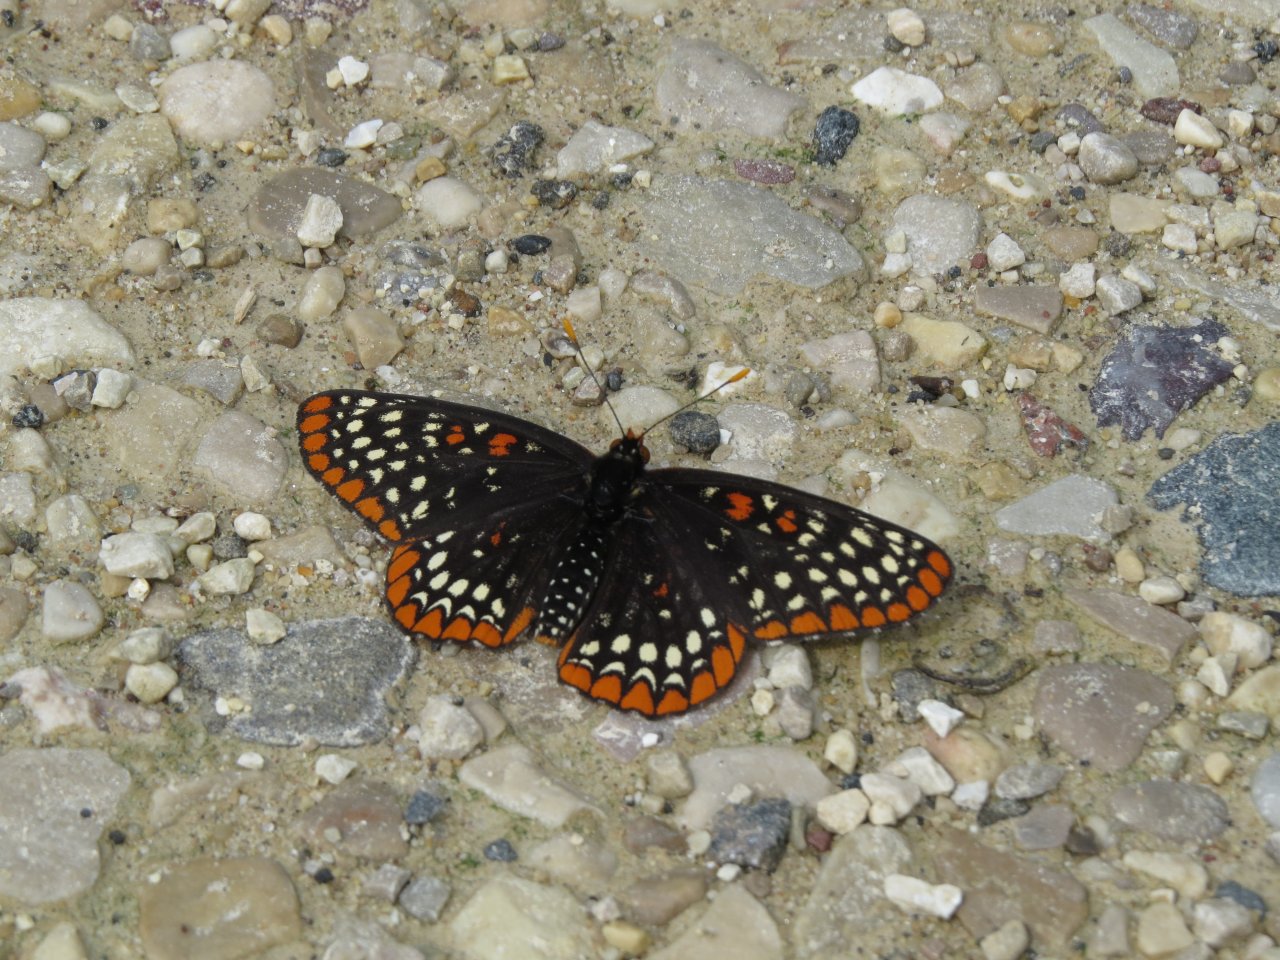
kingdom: Animalia
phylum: Arthropoda
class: Insecta
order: Lepidoptera
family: Nymphalidae
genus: Euphydryas
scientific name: Euphydryas phaeton
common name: Baltimore Checkerspot
